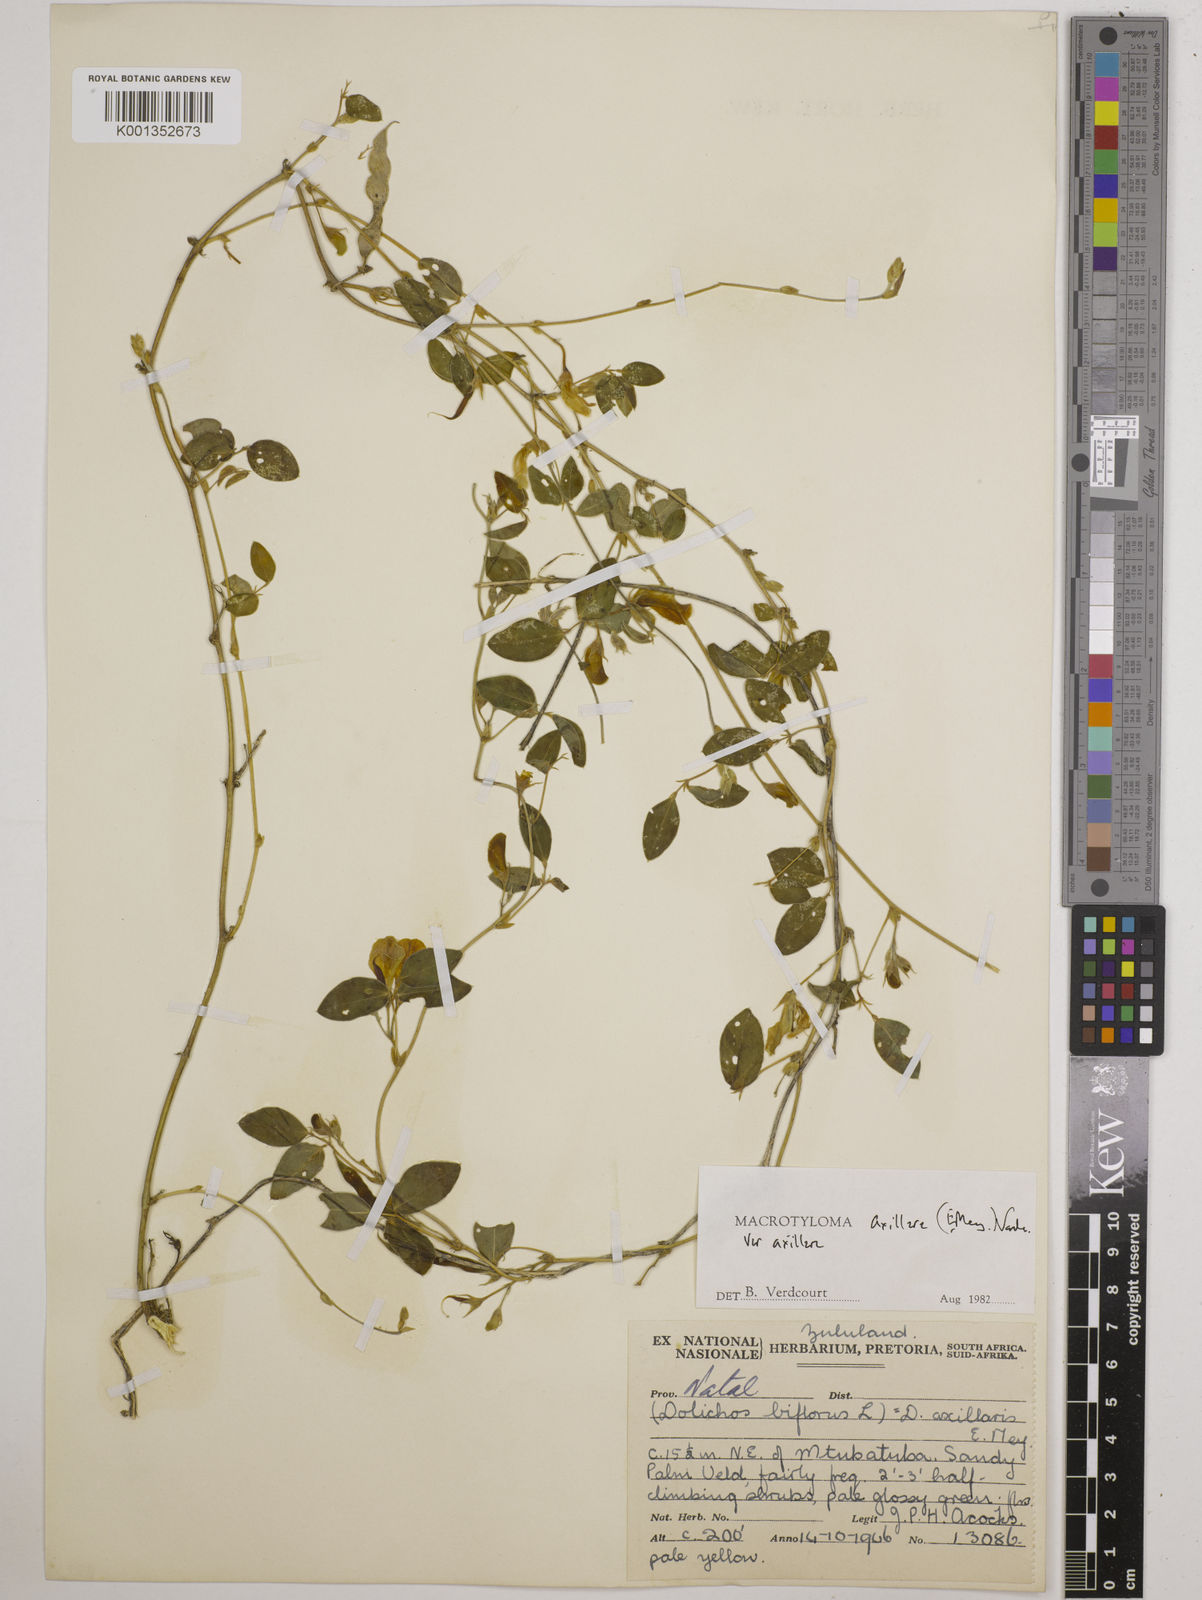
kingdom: Plantae
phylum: Tracheophyta
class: Magnoliopsida
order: Fabales
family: Fabaceae
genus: Macrotyloma
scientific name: Macrotyloma axillare
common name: Perennial horsegram
